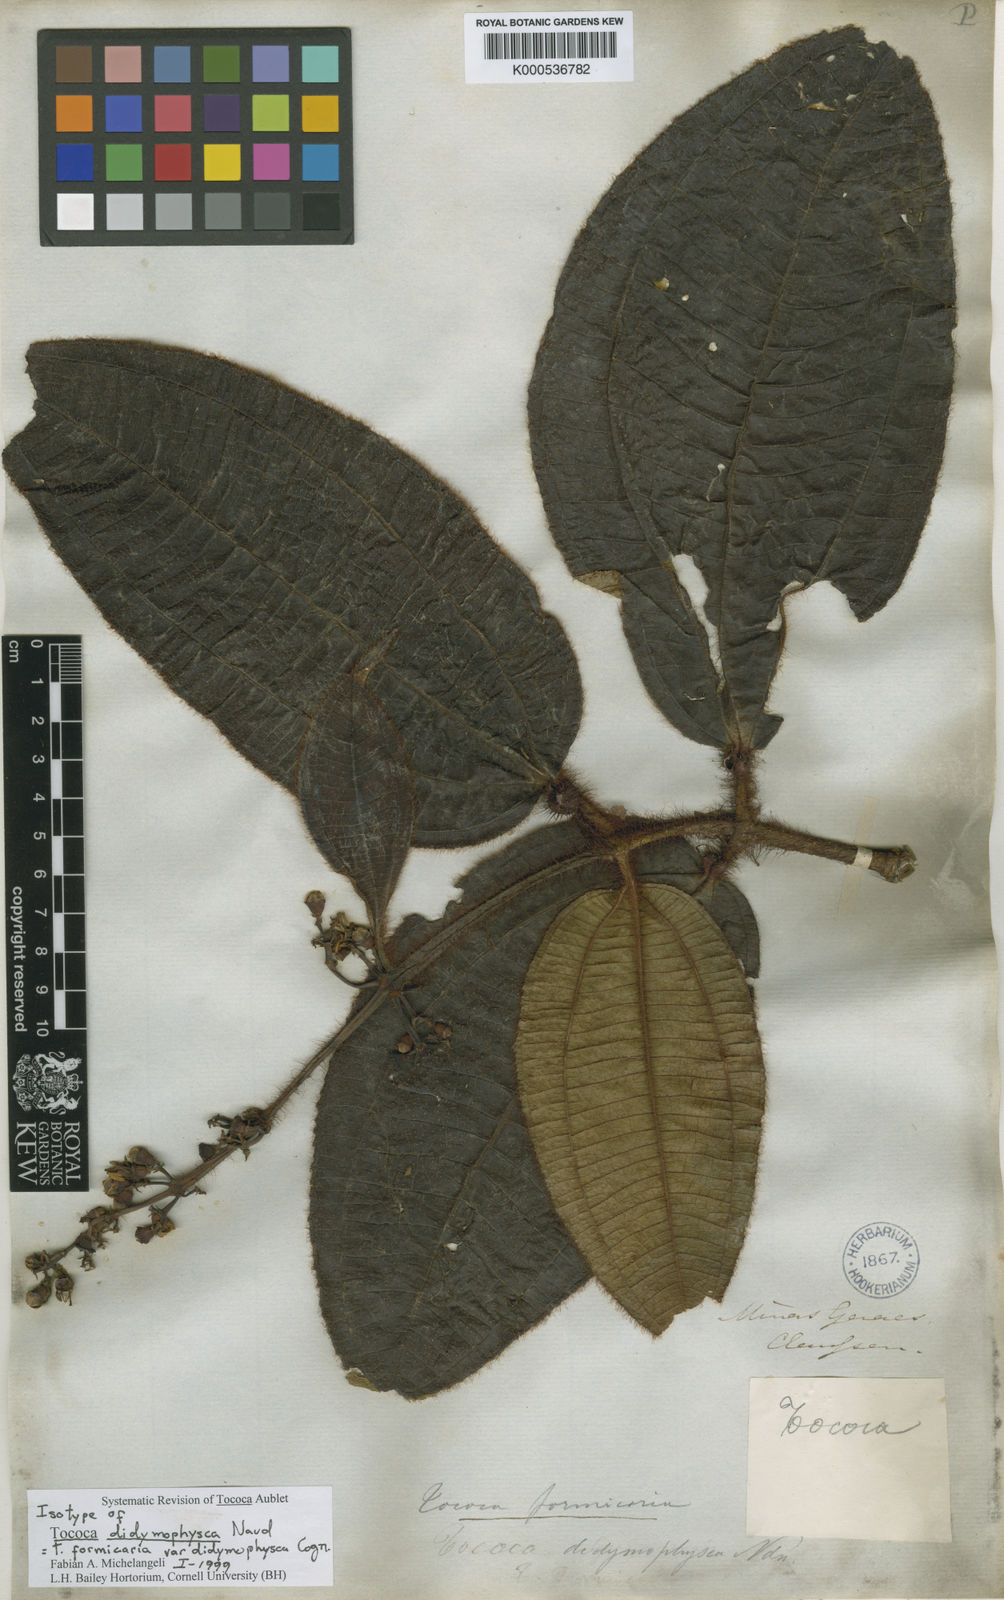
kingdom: Plantae
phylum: Tracheophyta
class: Magnoliopsida
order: Myrtales
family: Melastomataceae
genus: Miconia
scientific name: Miconia tococa
